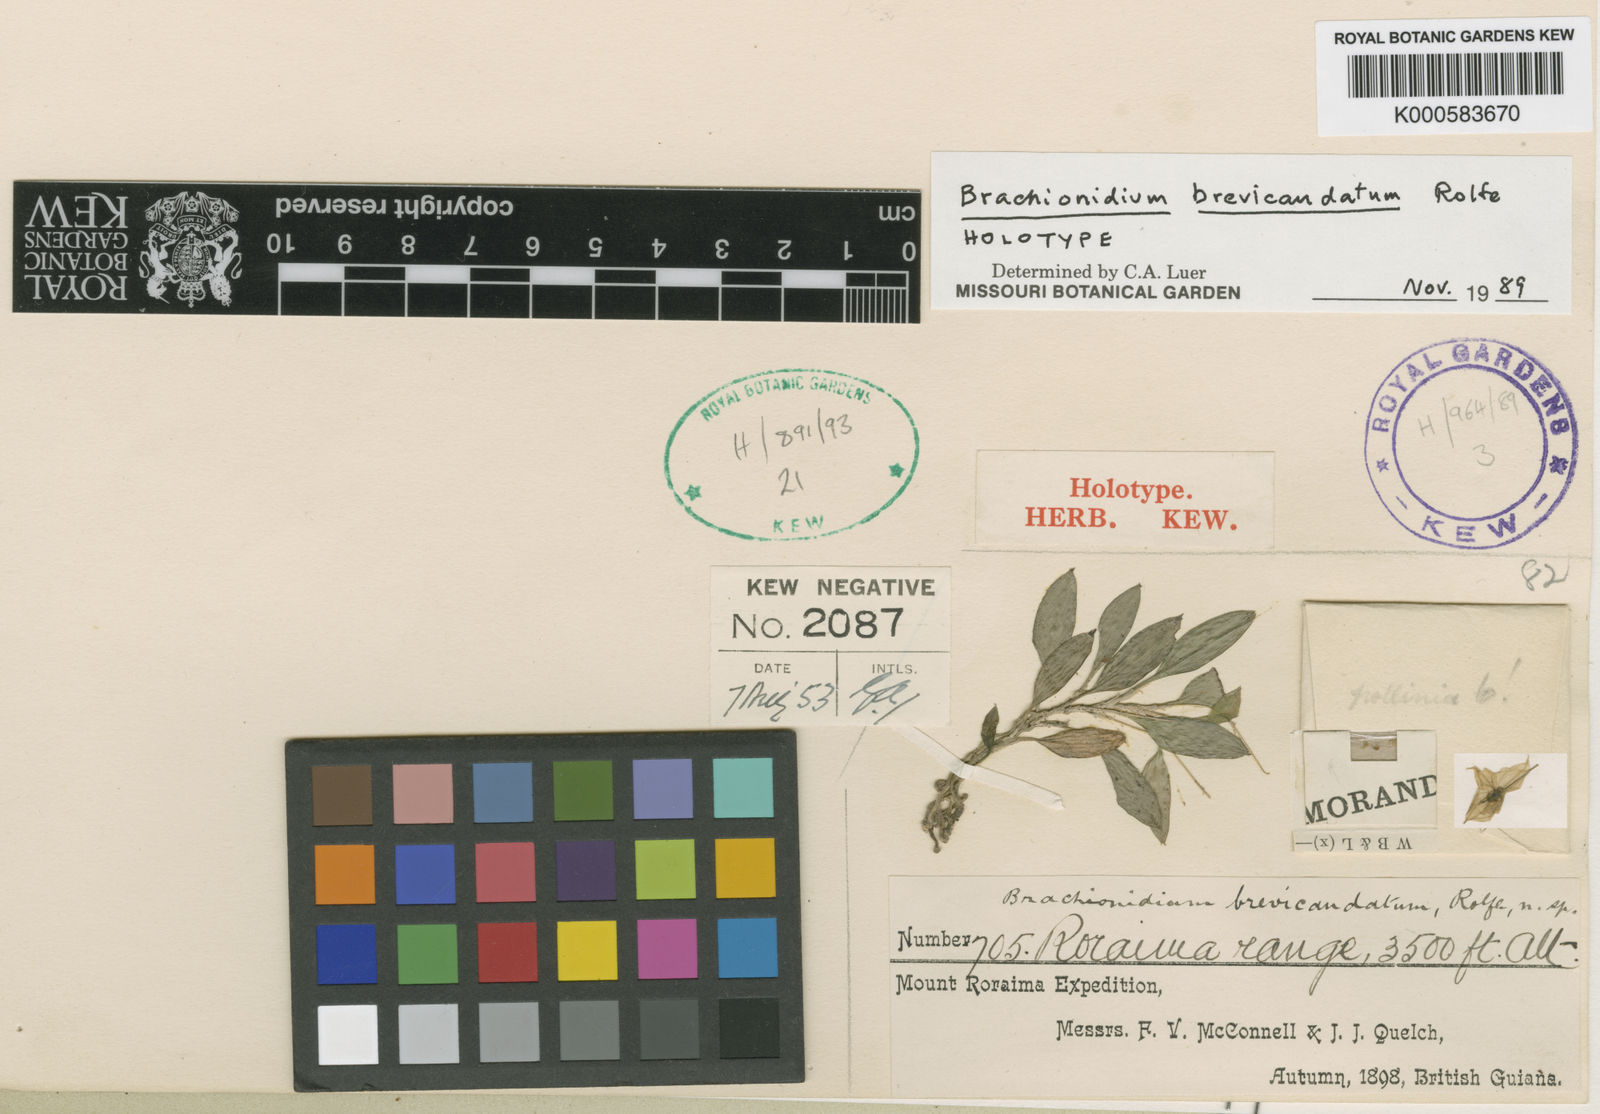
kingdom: Plantae
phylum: Tracheophyta
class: Liliopsida
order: Asparagales
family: Orchidaceae
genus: Brachionidium
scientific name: Brachionidium brevicaudatum
